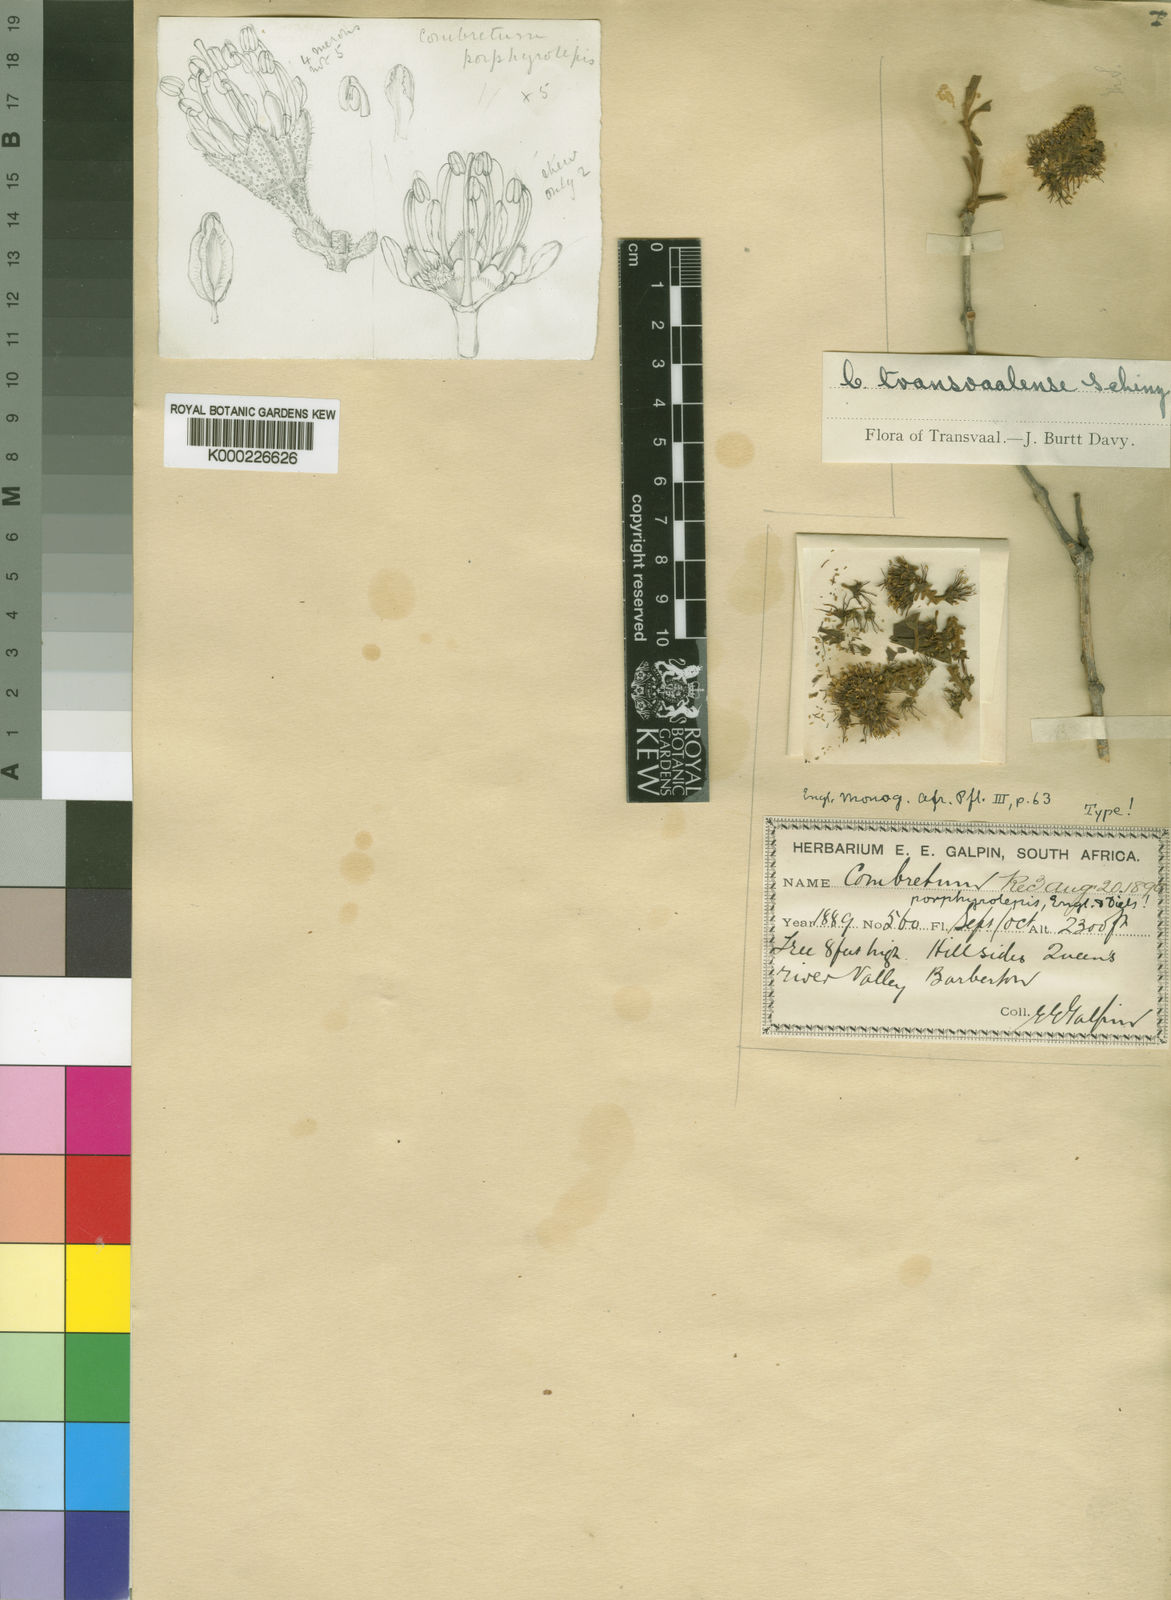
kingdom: Plantae
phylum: Tracheophyta
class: Magnoliopsida
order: Myrtales
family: Combretaceae
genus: Combretum
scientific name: Combretum hereroense
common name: Russet bushwillow
